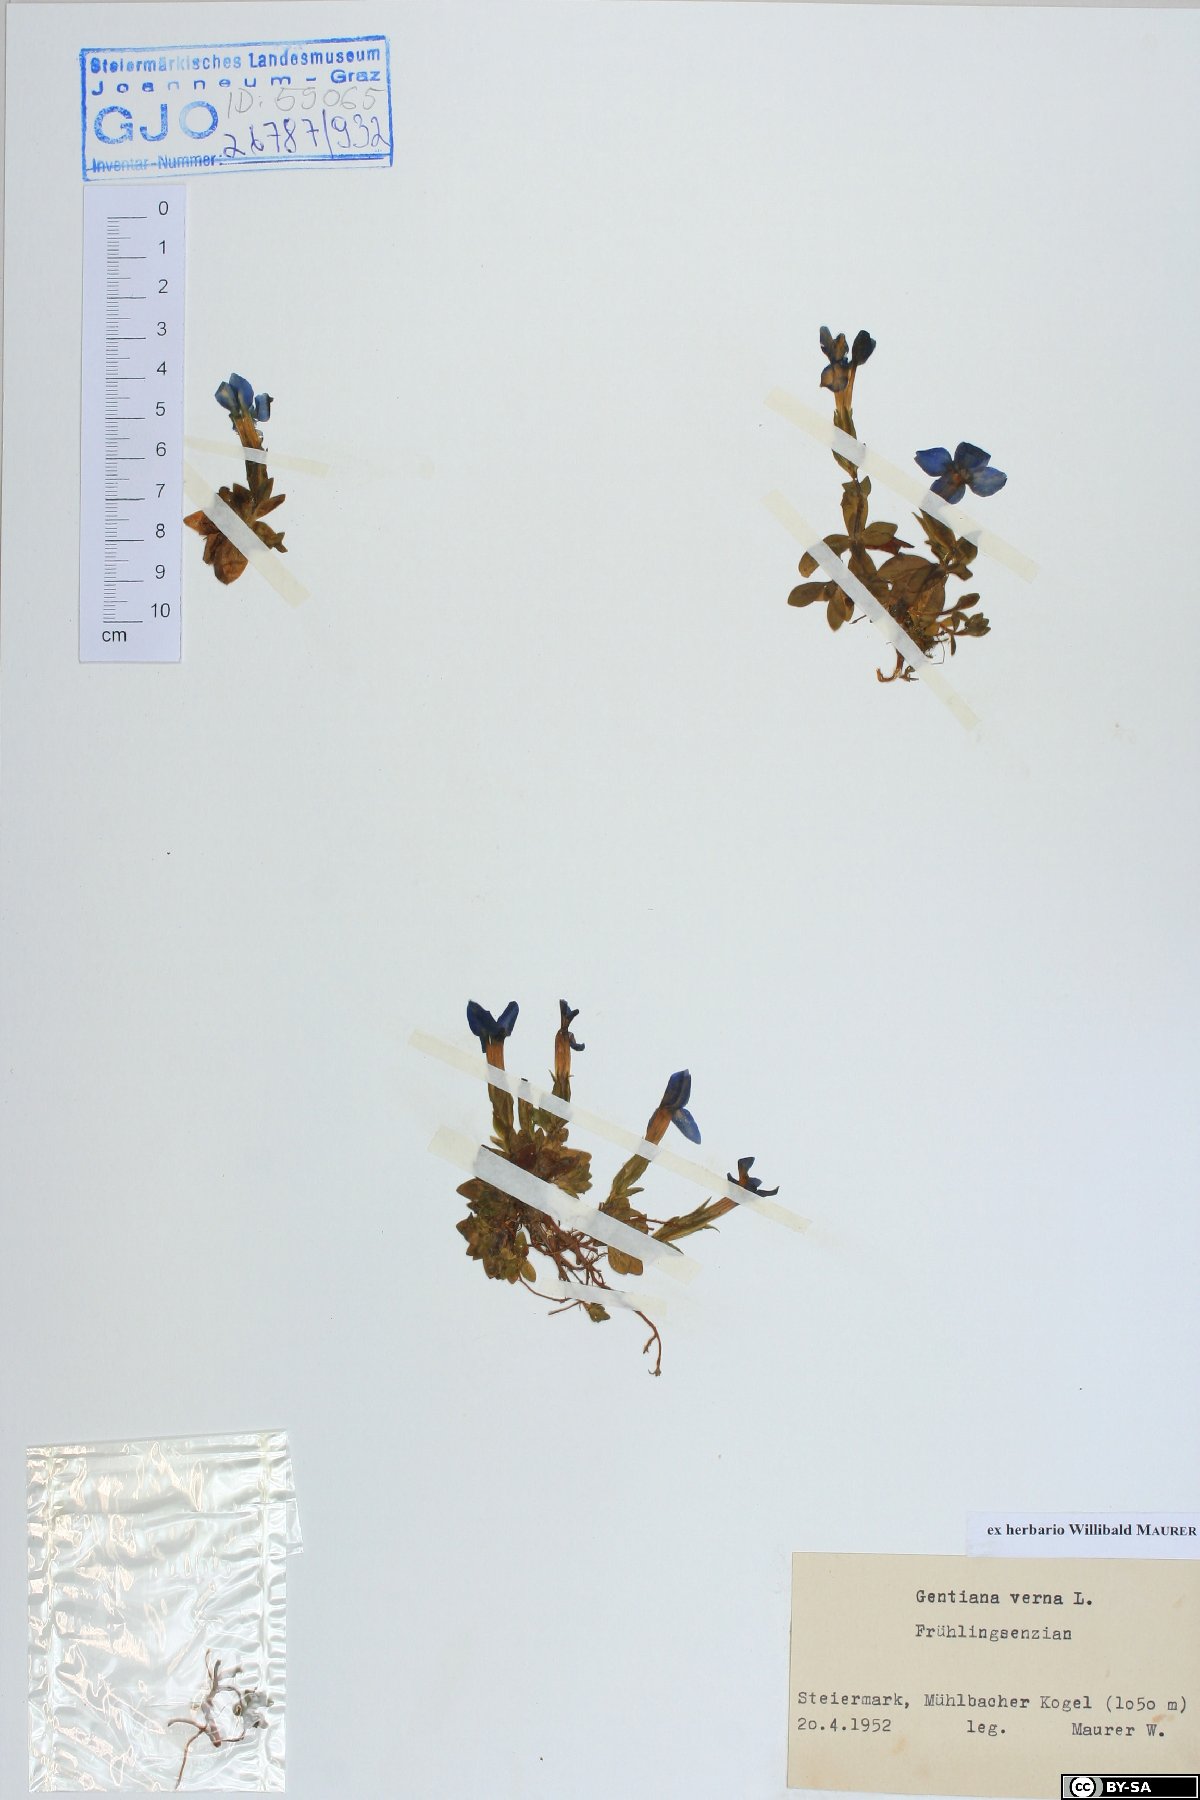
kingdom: Plantae
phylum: Tracheophyta
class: Magnoliopsida
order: Gentianales
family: Gentianaceae
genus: Gentiana
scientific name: Gentiana verna
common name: Spring gentian
